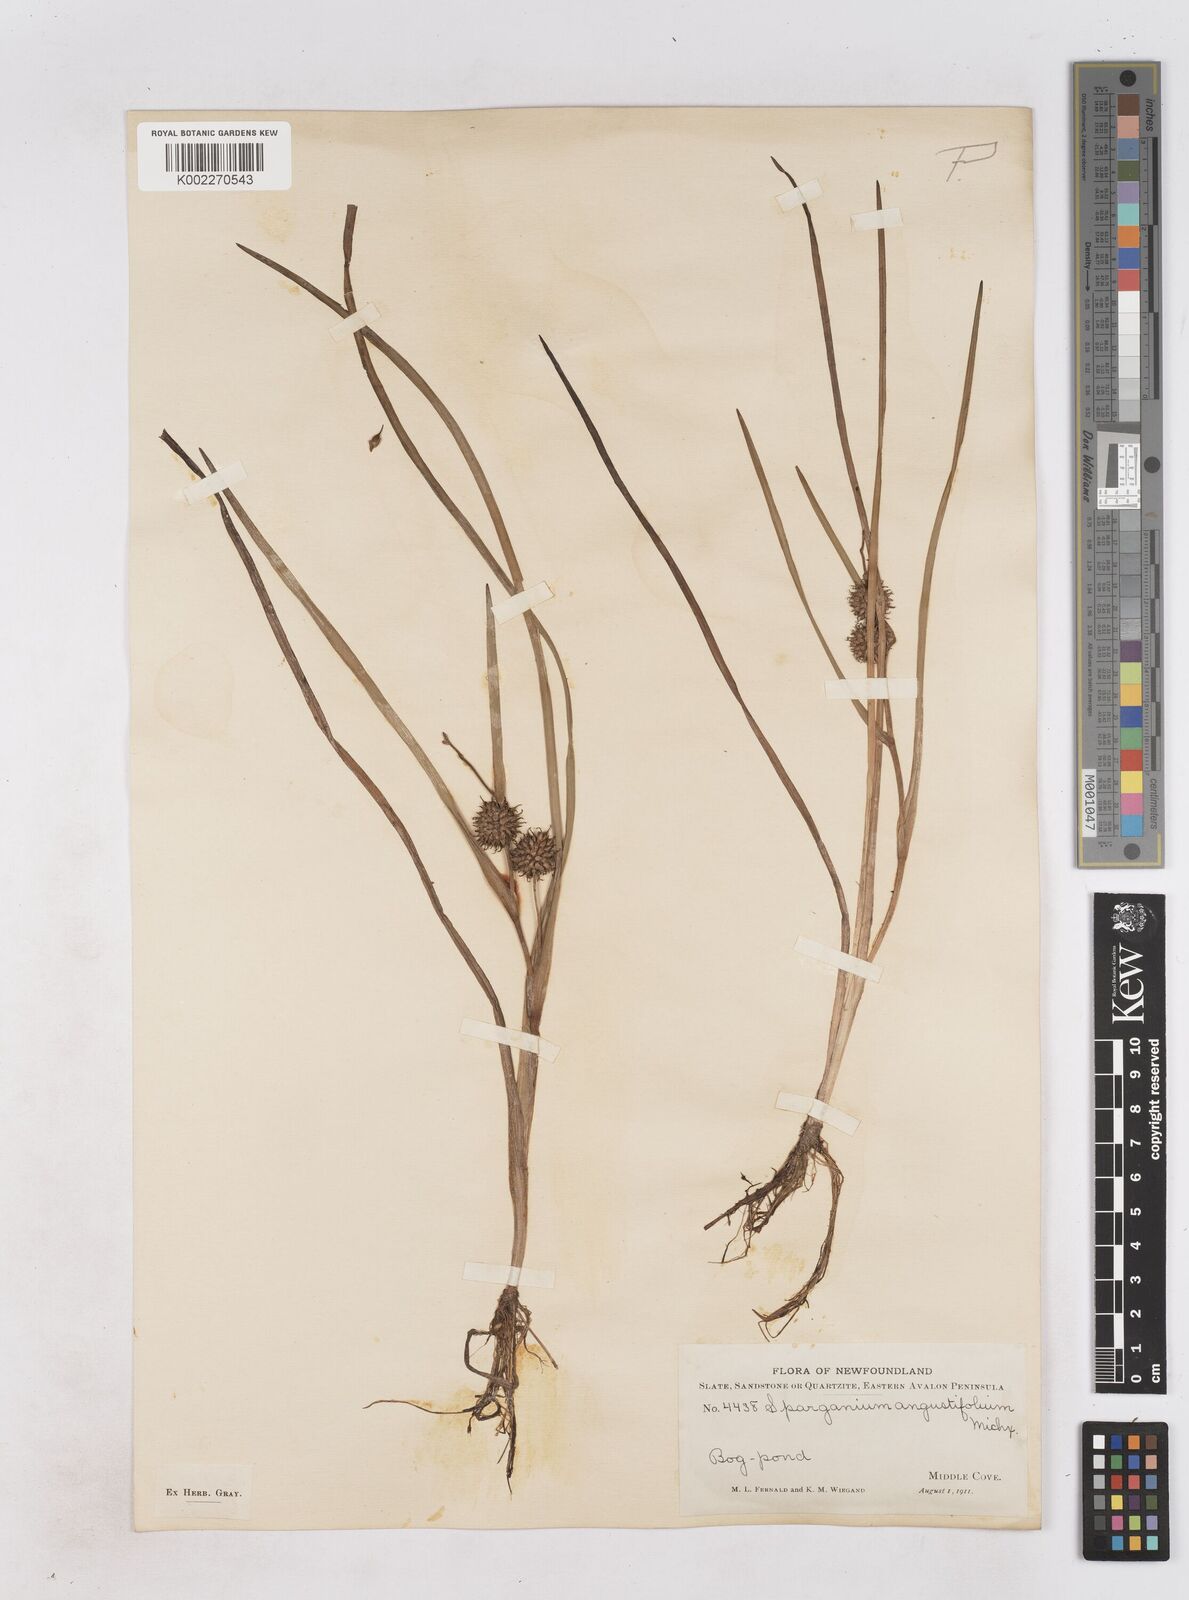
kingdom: Plantae
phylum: Tracheophyta
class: Liliopsida
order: Poales
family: Typhaceae
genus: Sparganium
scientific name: Sparganium angustifolium
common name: Floating bur-reed
